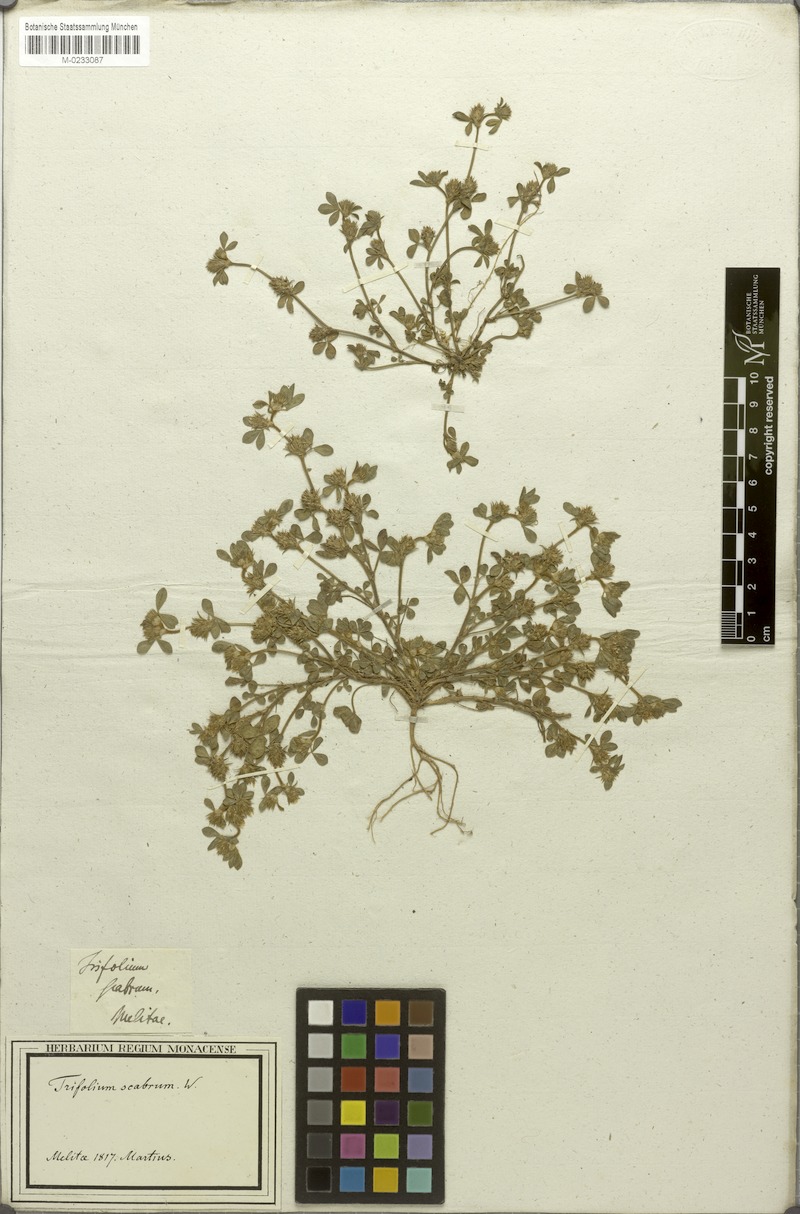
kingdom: Plantae
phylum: Tracheophyta
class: Magnoliopsida
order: Fabales
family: Fabaceae
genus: Trifolium
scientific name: Trifolium scabrum
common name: Rough clover
